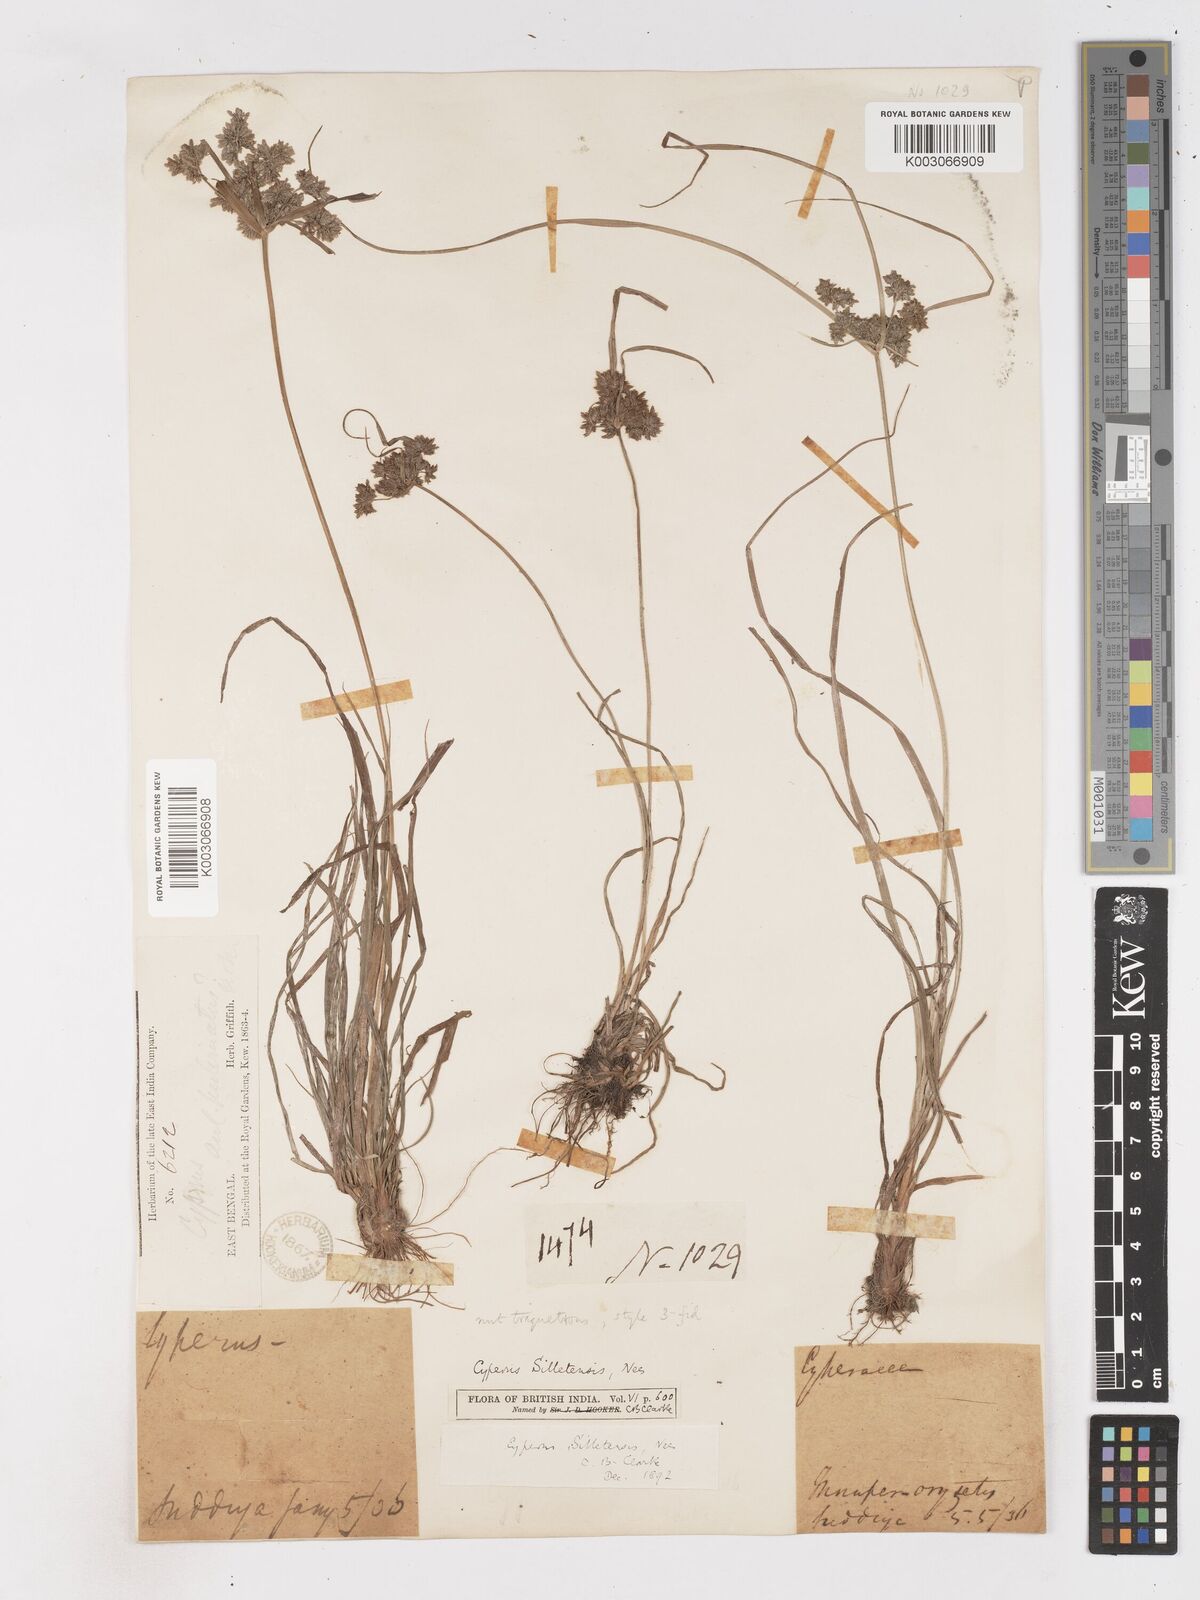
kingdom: Plantae
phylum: Tracheophyta
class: Liliopsida
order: Poales
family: Cyperaceae
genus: Cyperus
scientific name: Cyperus silletensis
